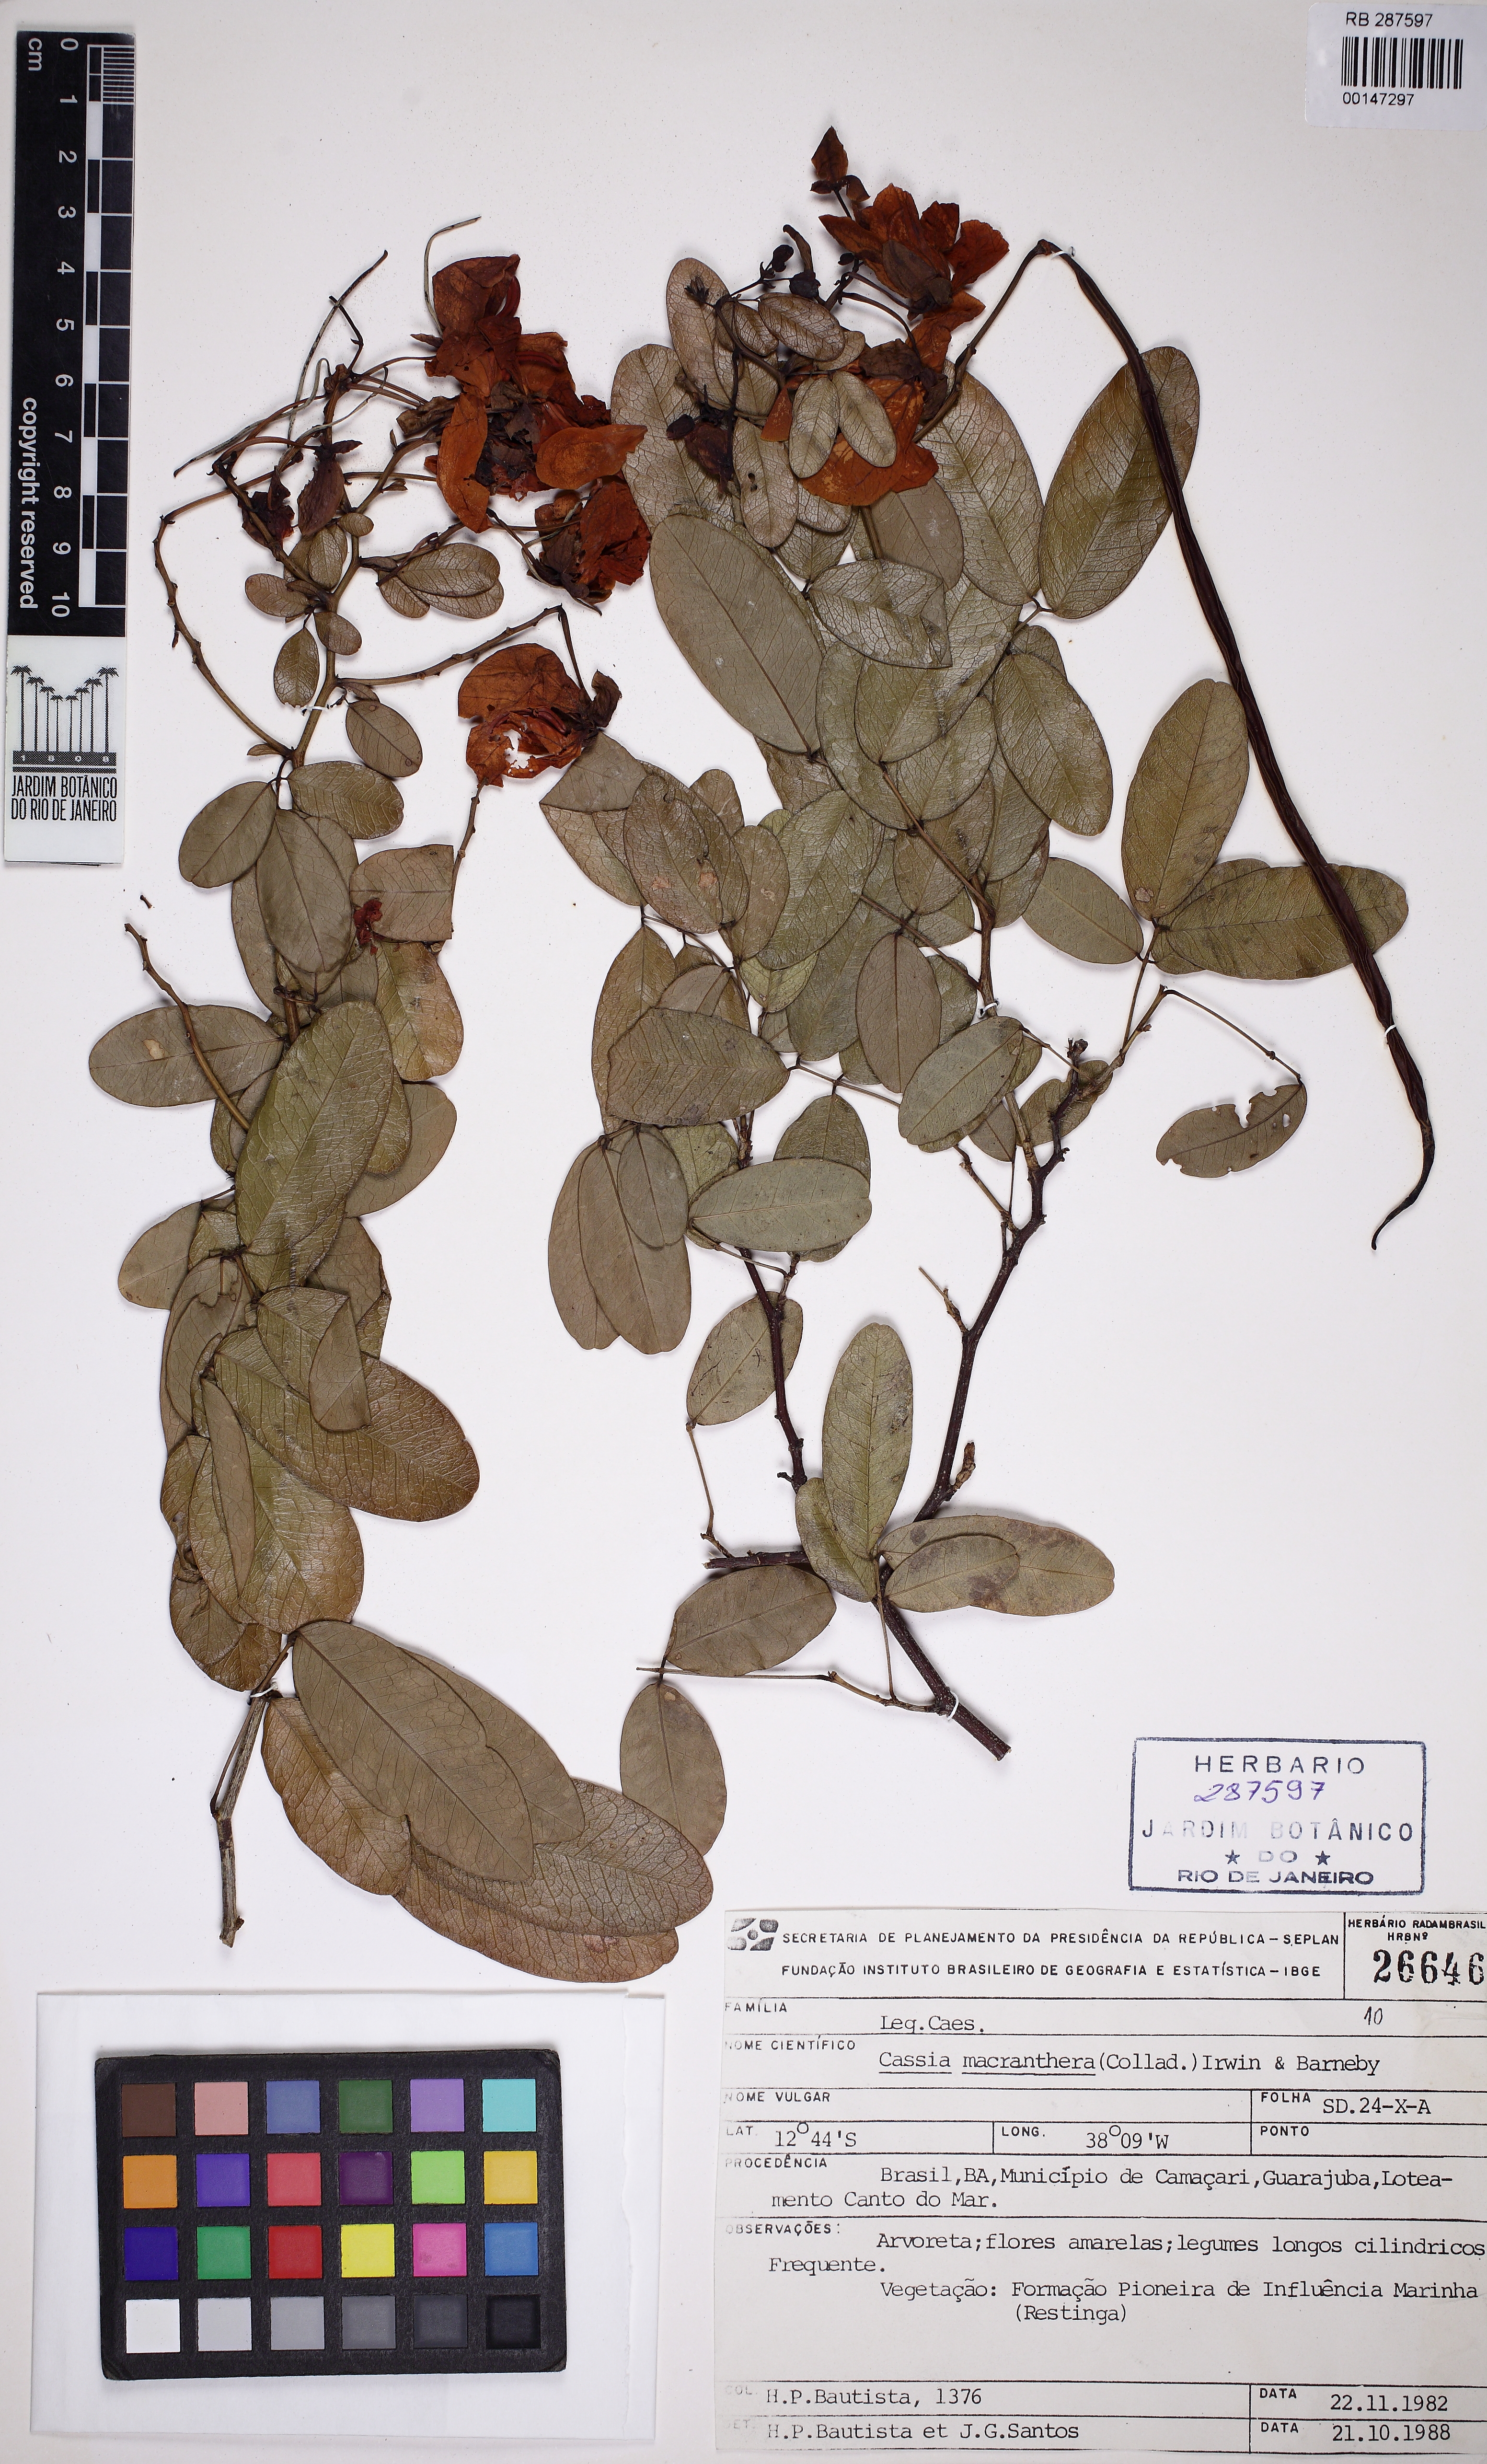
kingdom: Plantae
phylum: Tracheophyta
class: Magnoliopsida
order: Fabales
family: Fabaceae
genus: Senna
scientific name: Senna splendida
